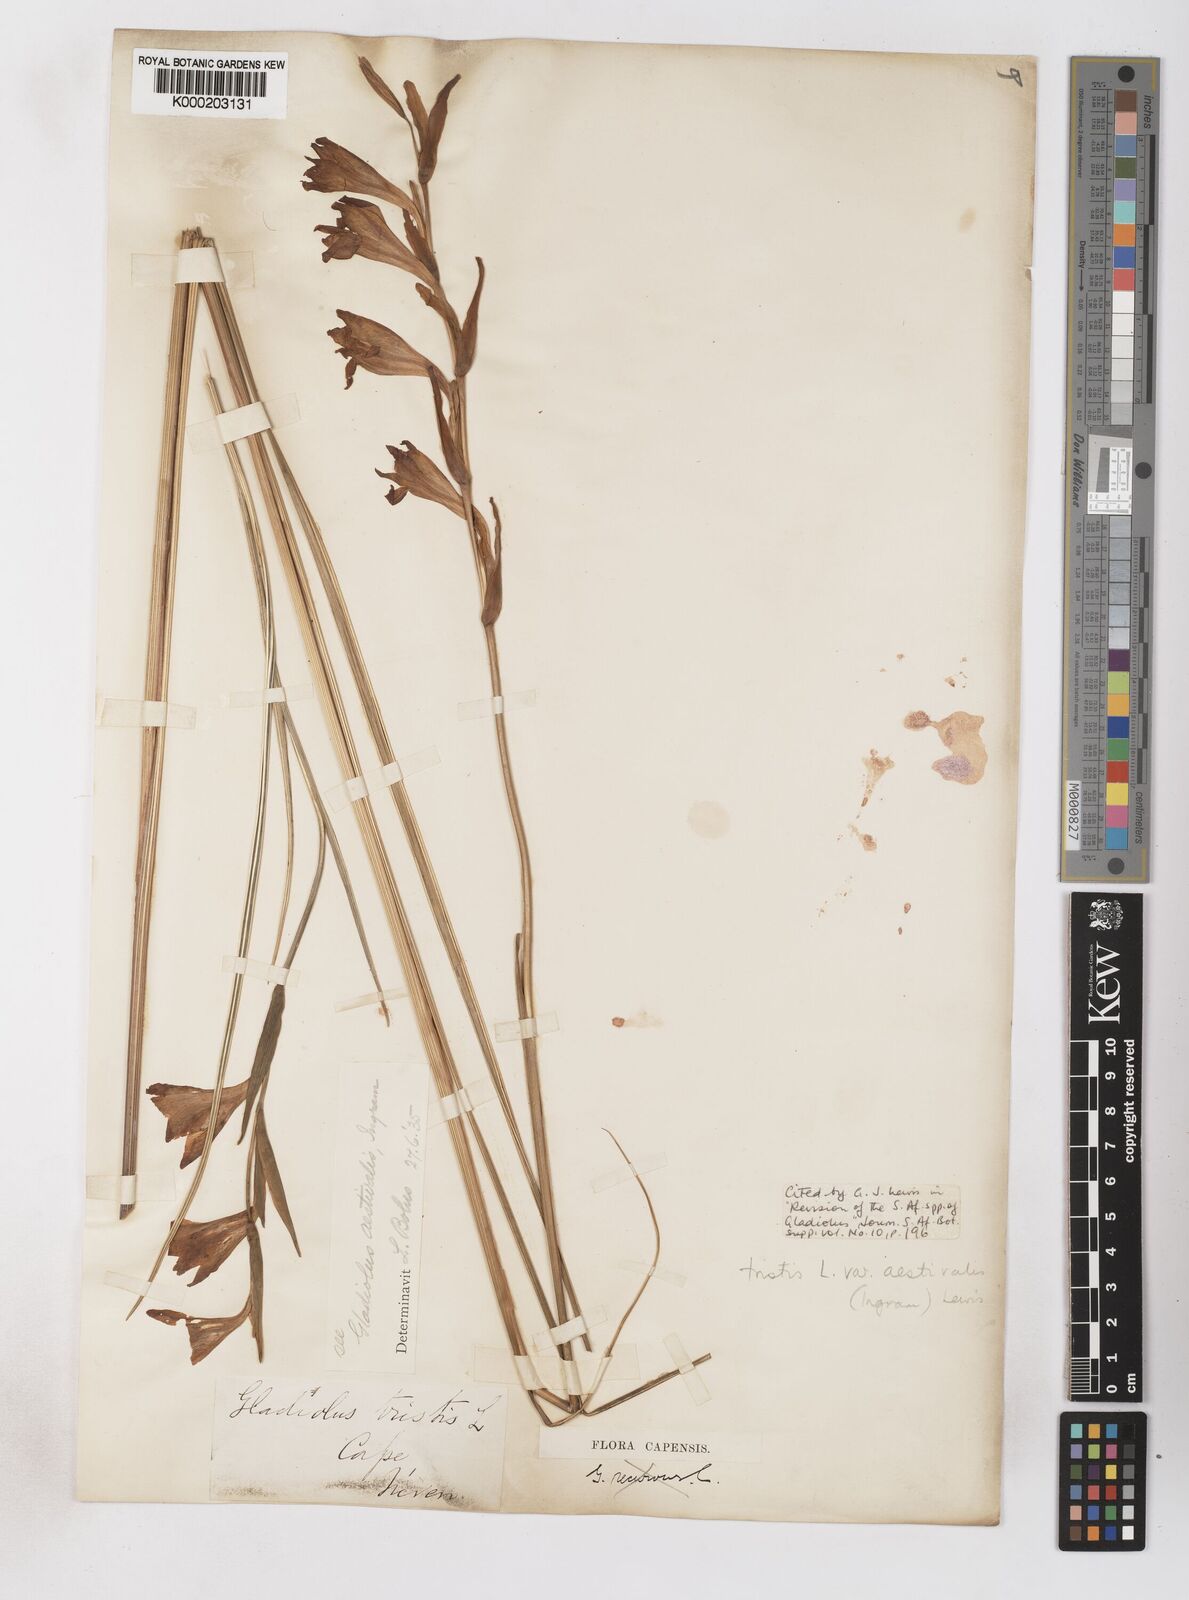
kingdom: Plantae
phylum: Tracheophyta
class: Liliopsida
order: Asparagales
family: Iridaceae
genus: Gladiolus
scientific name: Gladiolus tristis
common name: Ever-flowering gladiolus
